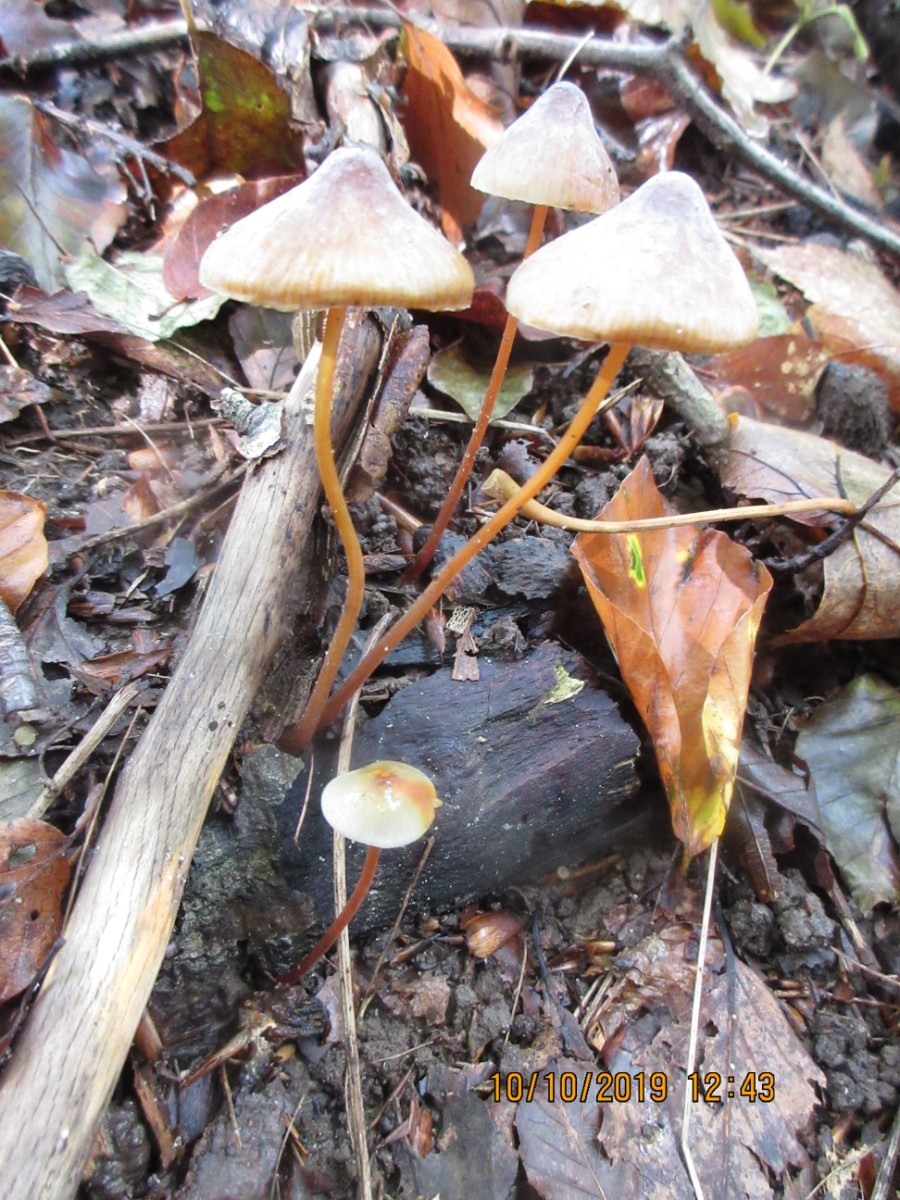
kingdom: Fungi
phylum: Basidiomycota
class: Agaricomycetes
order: Agaricales
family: Mycenaceae
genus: Mycena
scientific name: Mycena crocata
